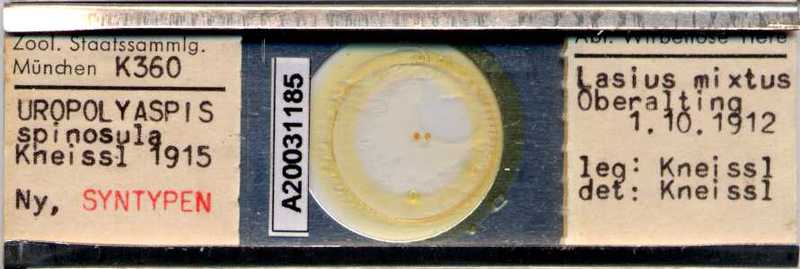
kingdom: Animalia
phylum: Arthropoda
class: Arachnida
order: Mesostigmata
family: Uropodidae
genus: Uropoda
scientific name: Uropoda spinosula
